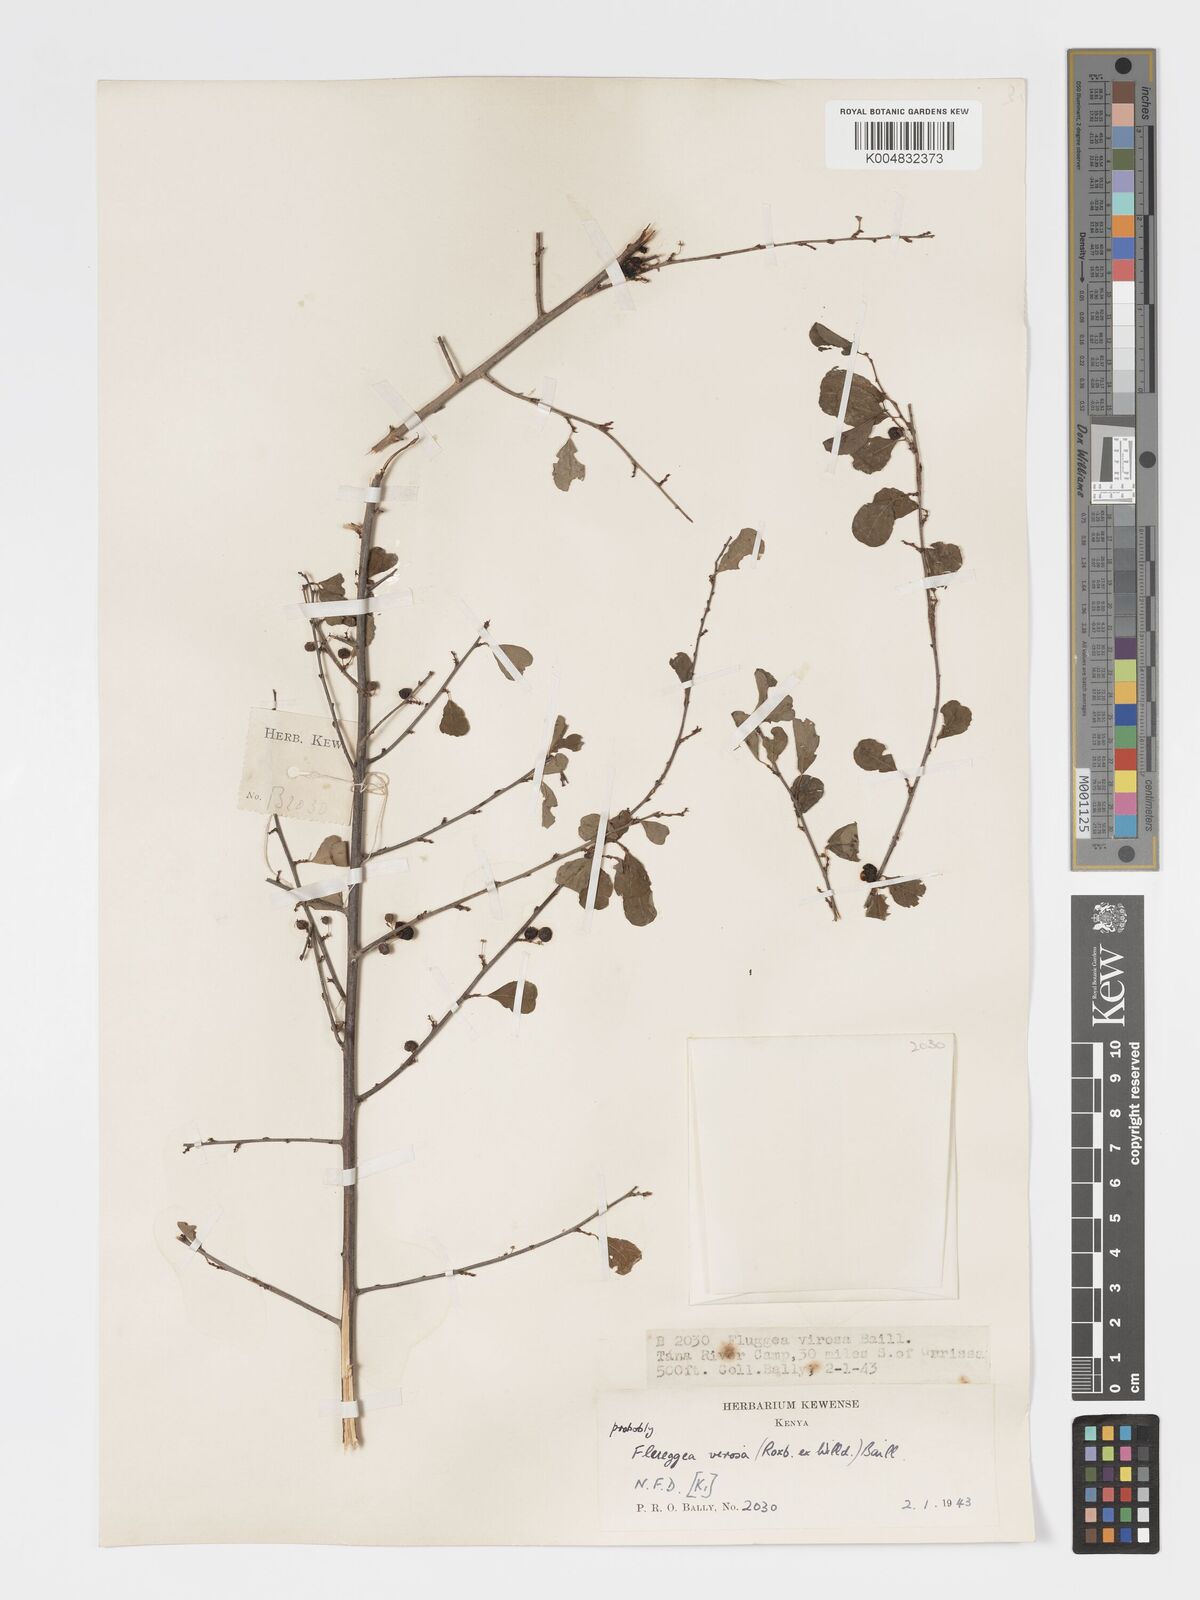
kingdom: Plantae
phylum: Tracheophyta
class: Magnoliopsida
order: Malpighiales
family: Phyllanthaceae
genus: Flueggea
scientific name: Flueggea virosa
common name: Common bushweed
